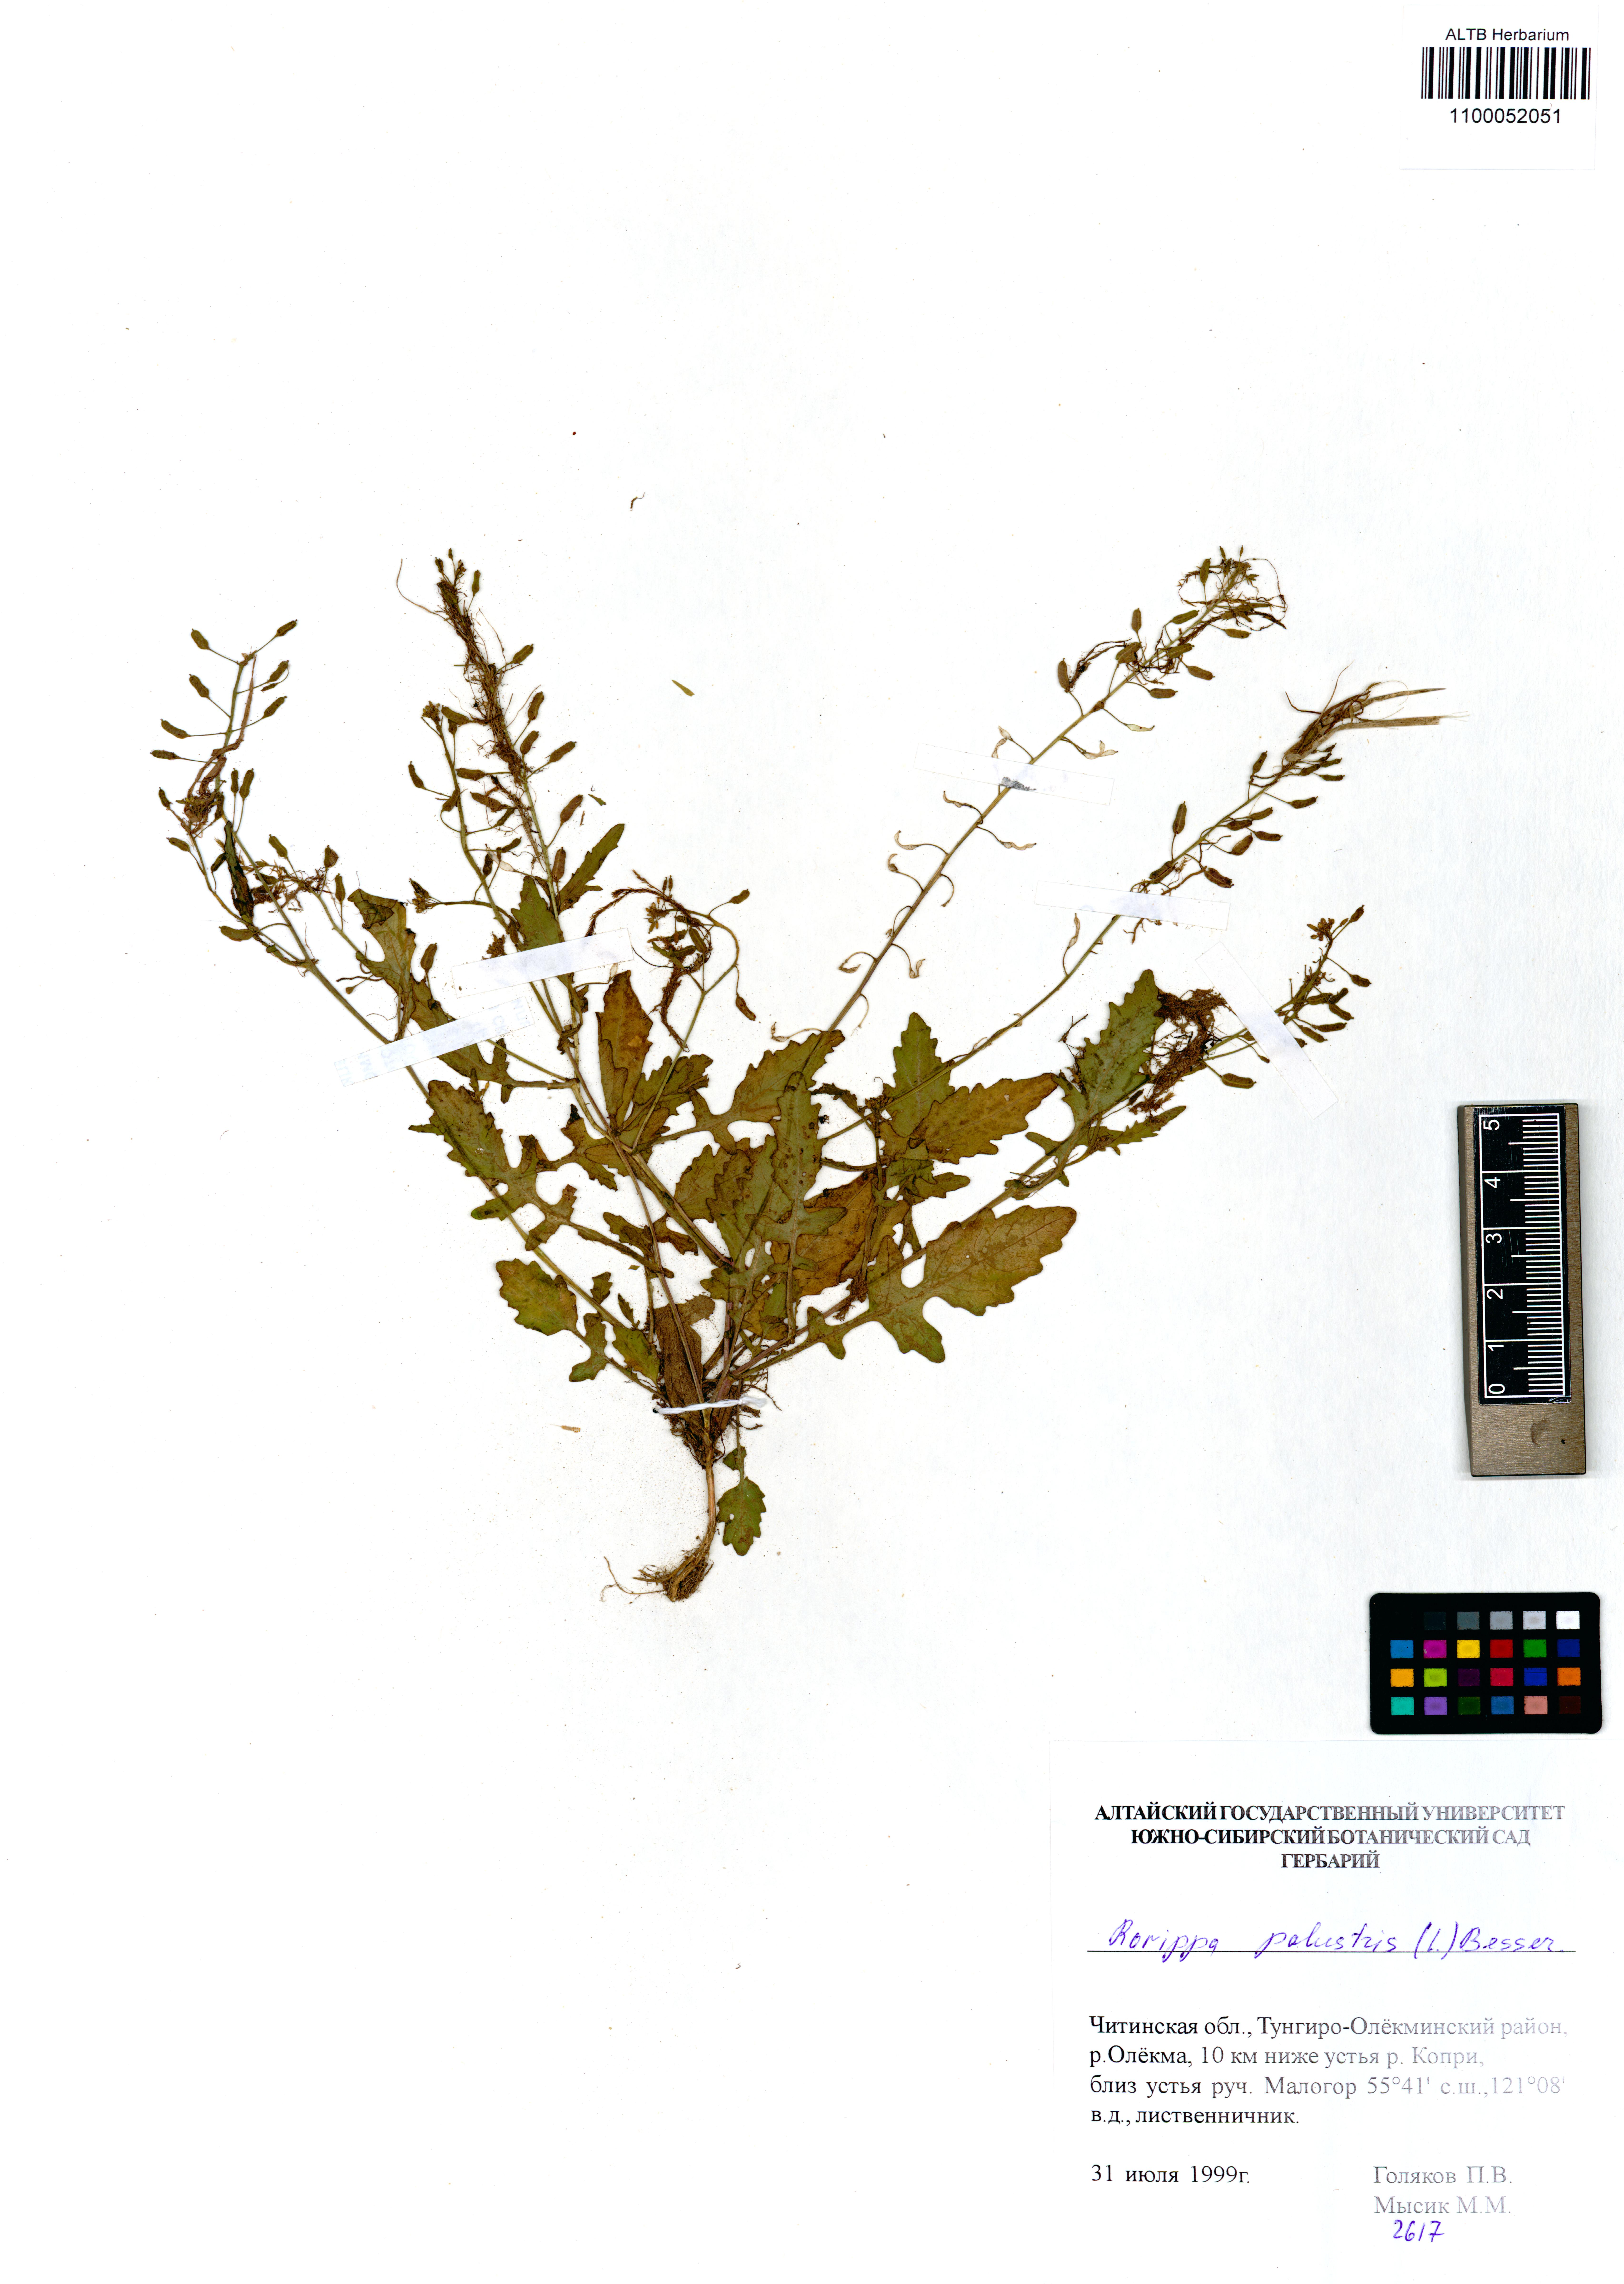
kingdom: Plantae
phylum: Tracheophyta
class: Magnoliopsida
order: Brassicales
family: Brassicaceae
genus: Rorippa
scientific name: Rorippa palustris
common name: Marsh yellow-cress
